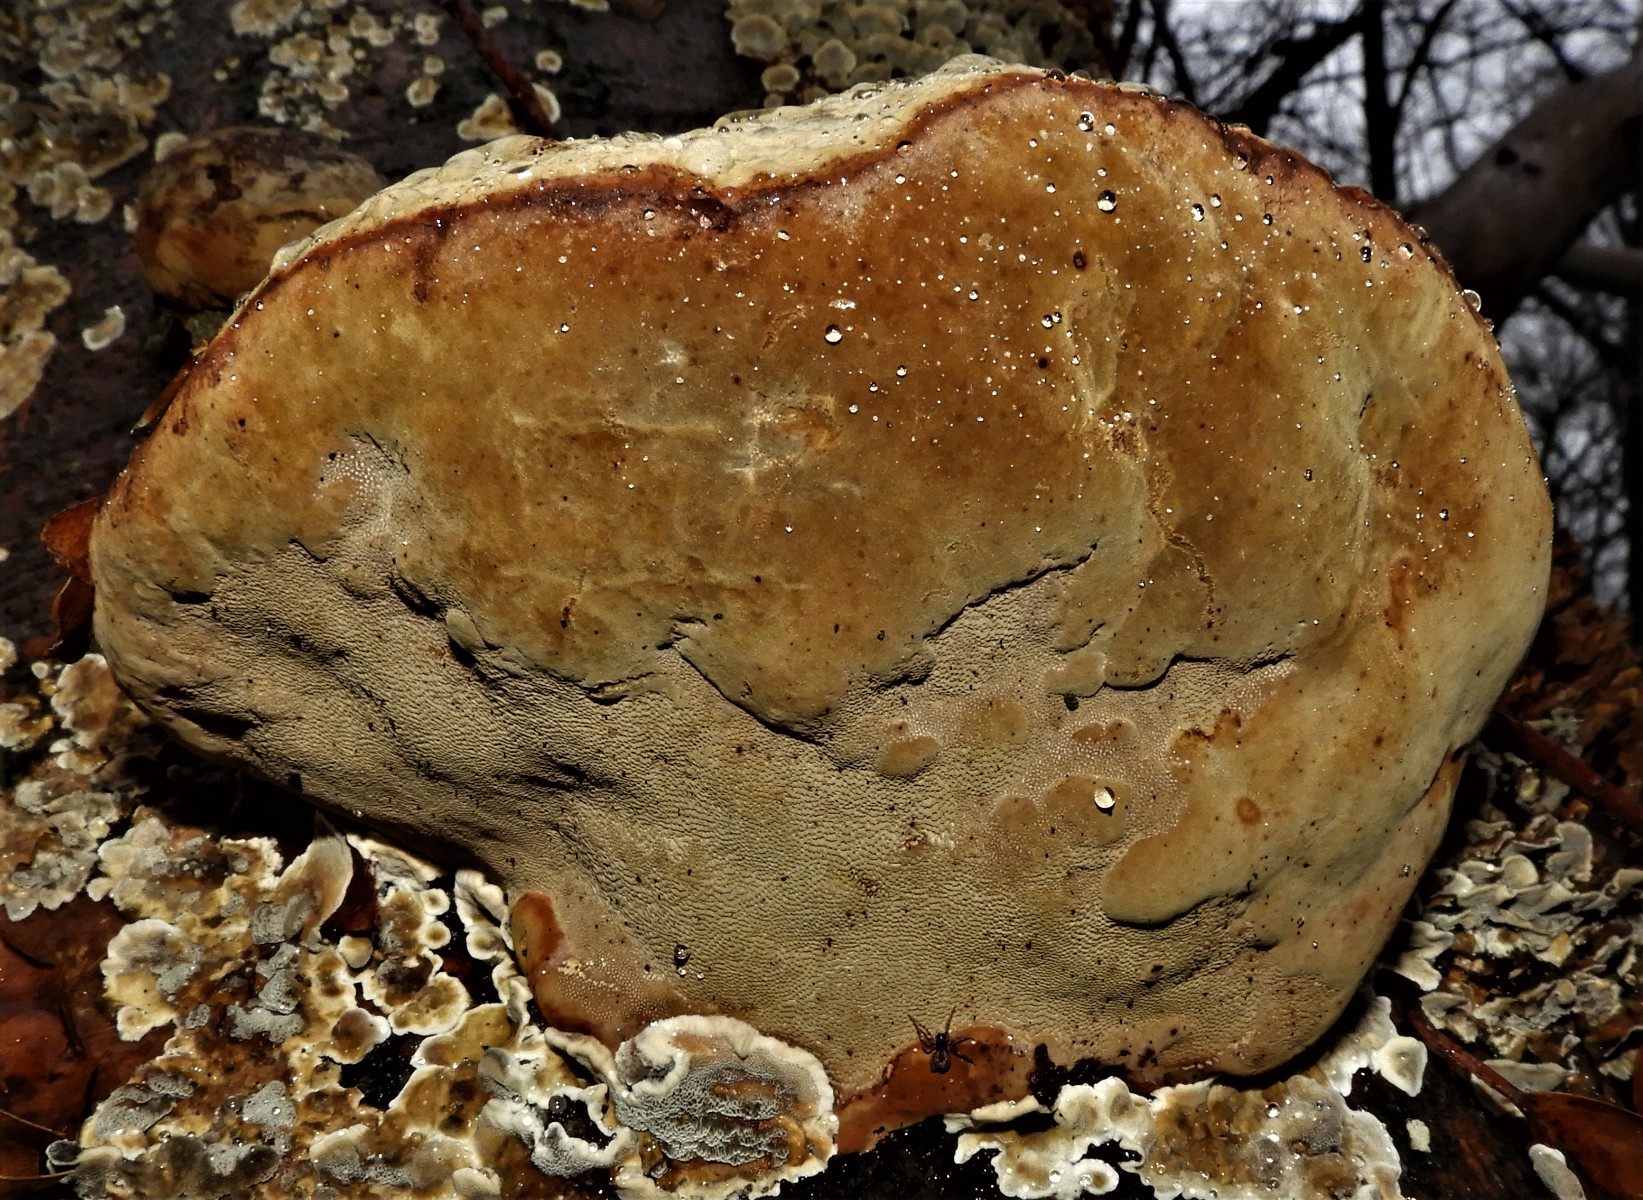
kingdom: Fungi
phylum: Basidiomycota
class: Agaricomycetes
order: Polyporales
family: Polyporaceae
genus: Fomes
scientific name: Fomes fomentarius
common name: tøndersvamp
